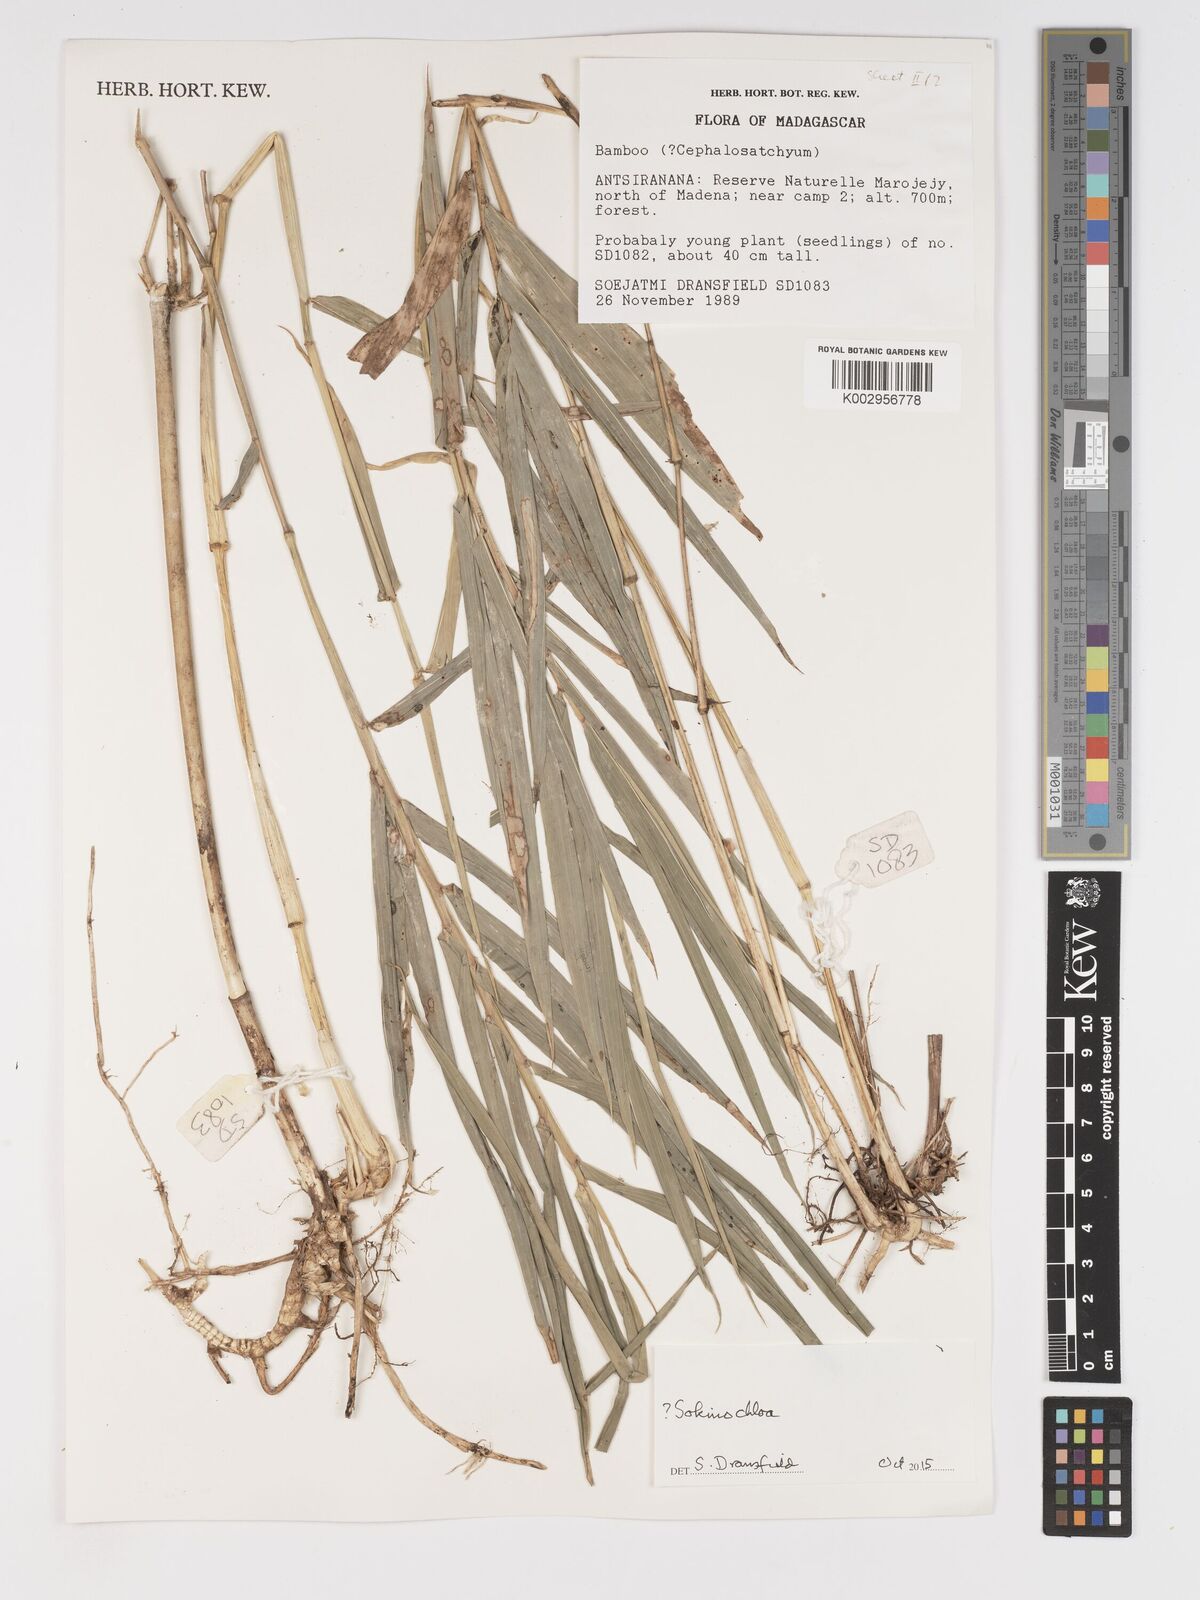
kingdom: Plantae
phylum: Tracheophyta
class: Liliopsida
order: Poales
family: Poaceae
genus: Sokinochloa
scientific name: Sokinochloa
